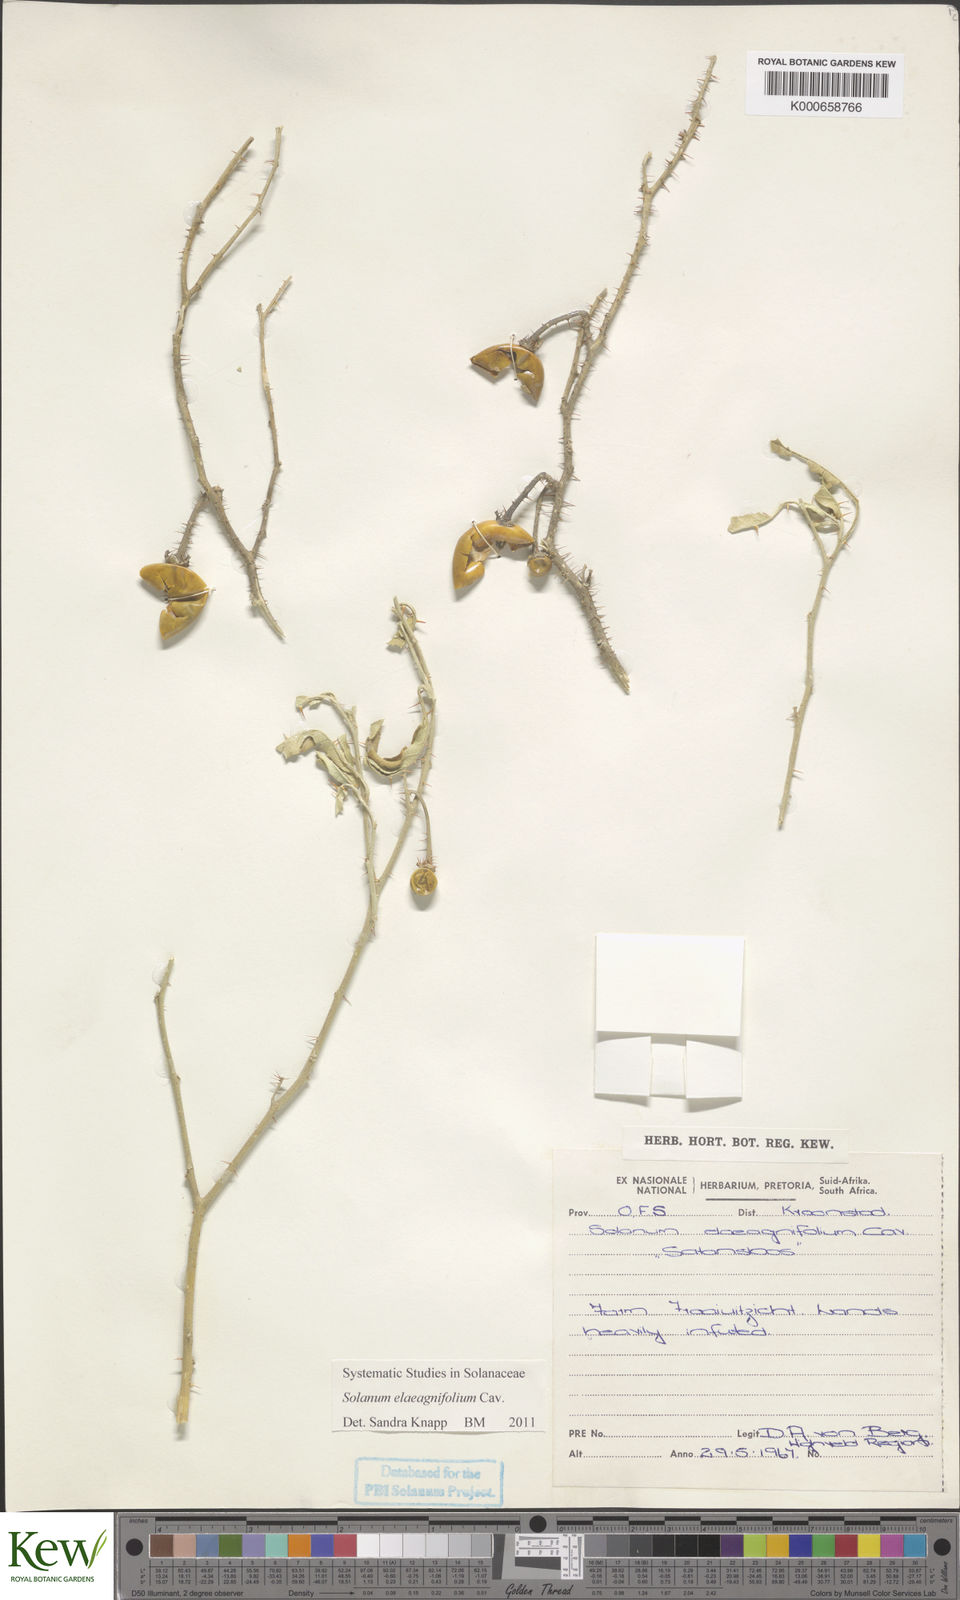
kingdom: Plantae
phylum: Tracheophyta
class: Magnoliopsida
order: Solanales
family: Solanaceae
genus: Solanum
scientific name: Solanum elaeagnifolium
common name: Silverleaf nightshade
